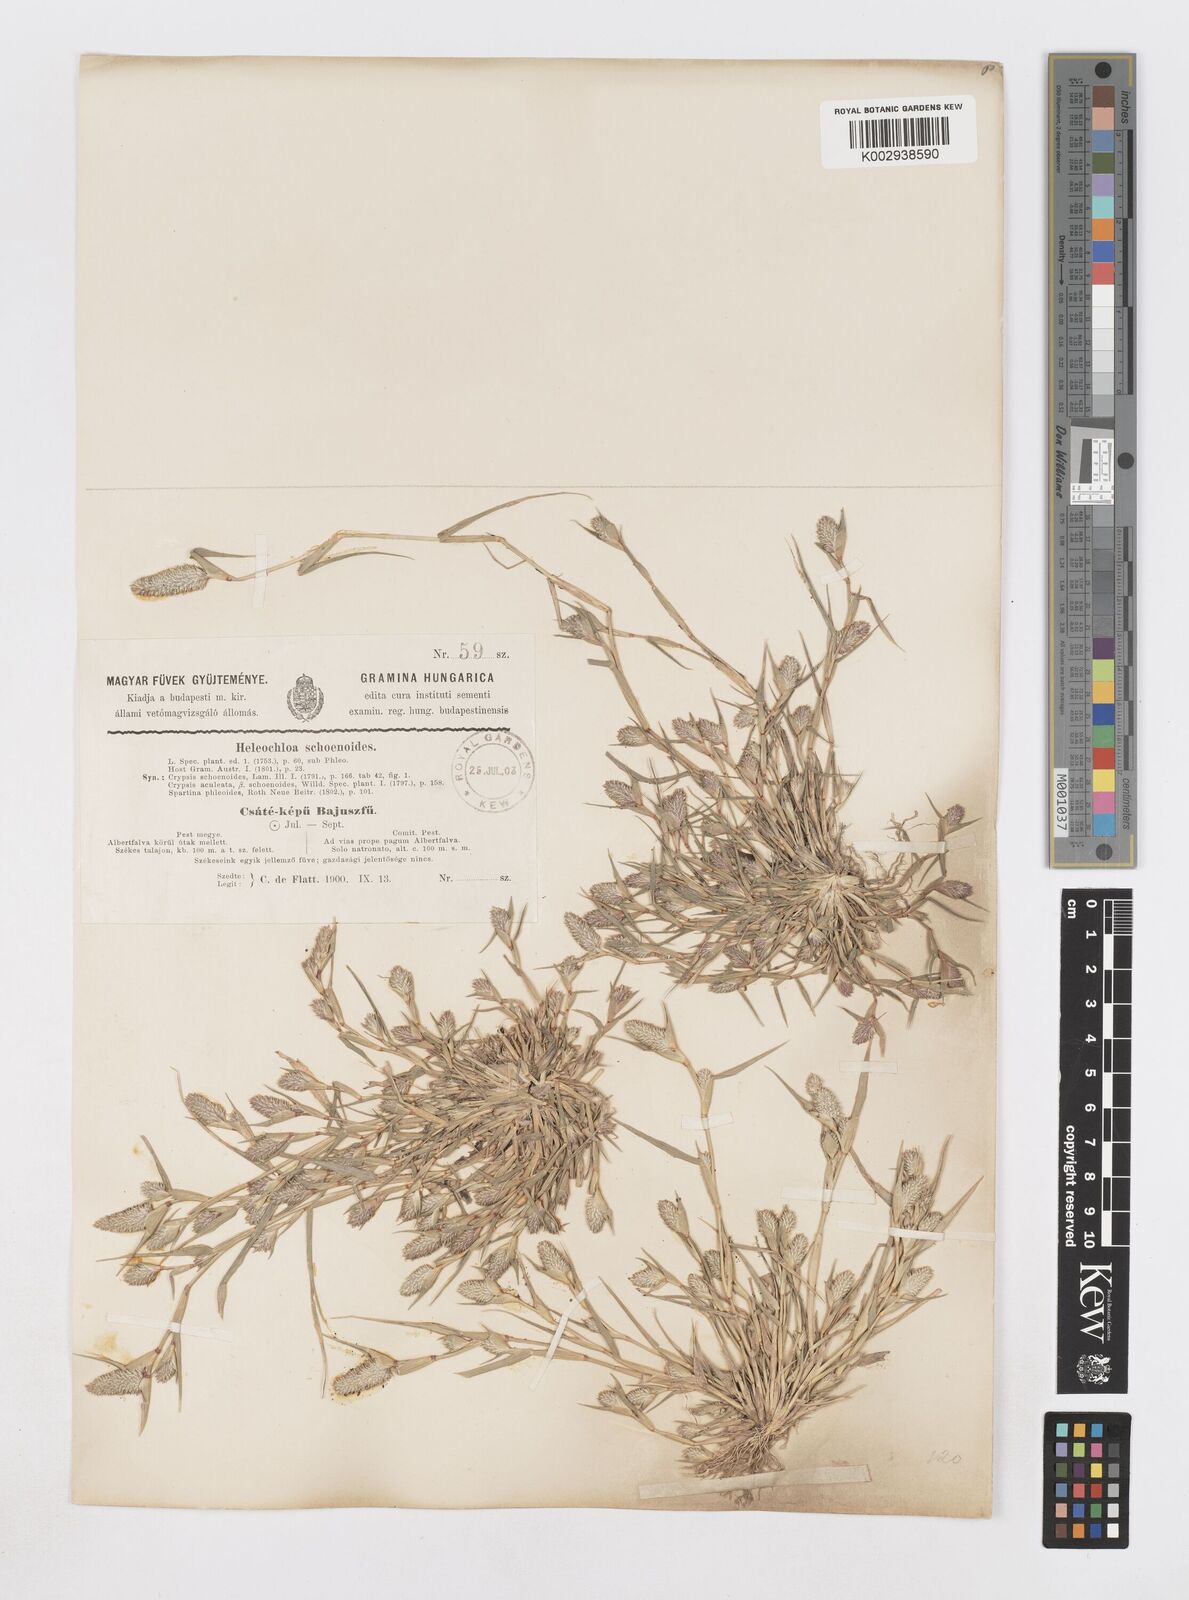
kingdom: Plantae
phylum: Tracheophyta
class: Liliopsida
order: Poales
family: Poaceae
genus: Sporobolus
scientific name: Sporobolus schoenoides
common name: Rush-like timothy
